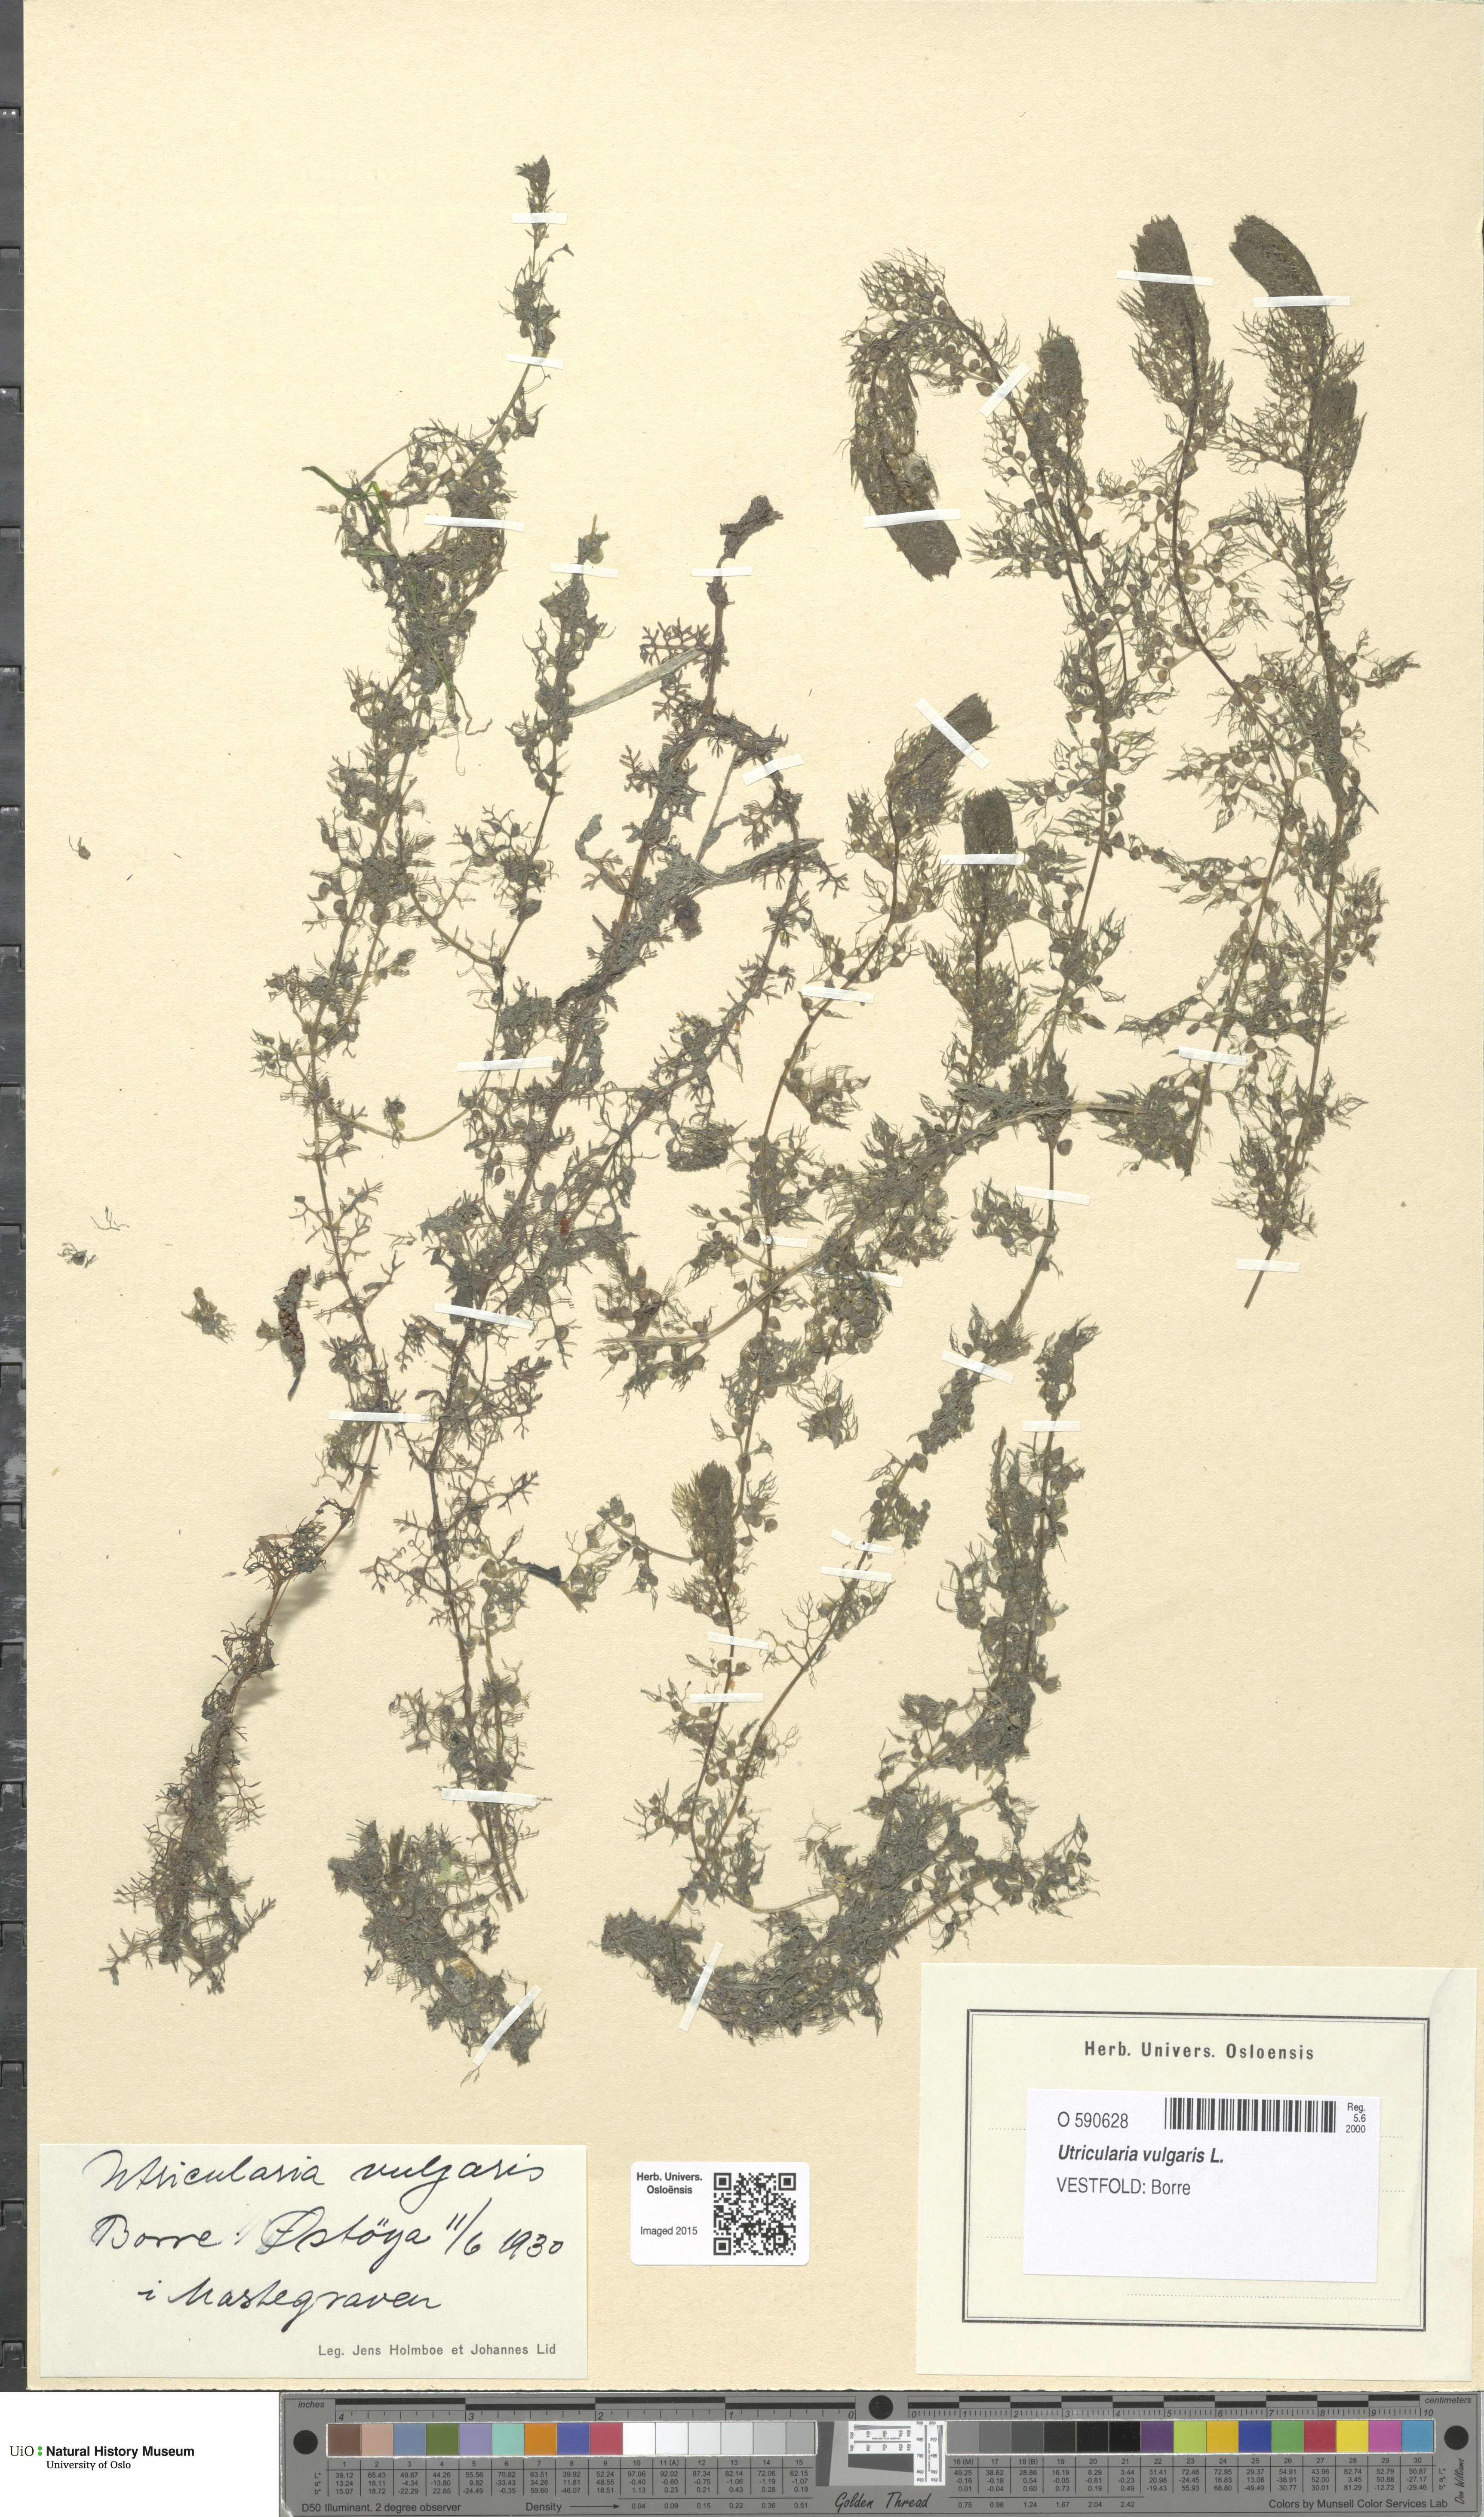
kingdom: Plantae
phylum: Tracheophyta
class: Magnoliopsida
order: Lamiales
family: Lentibulariaceae
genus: Utricularia
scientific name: Utricularia vulgaris
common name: Greater bladderwort
